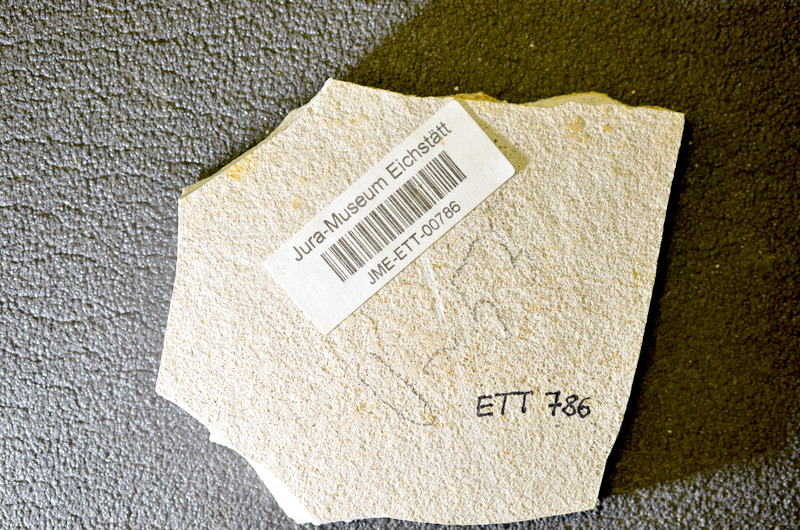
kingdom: Animalia
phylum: Chordata
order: Salmoniformes
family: Orthogonikleithridae
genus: Orthogonikleithrus
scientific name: Orthogonikleithrus hoelli
